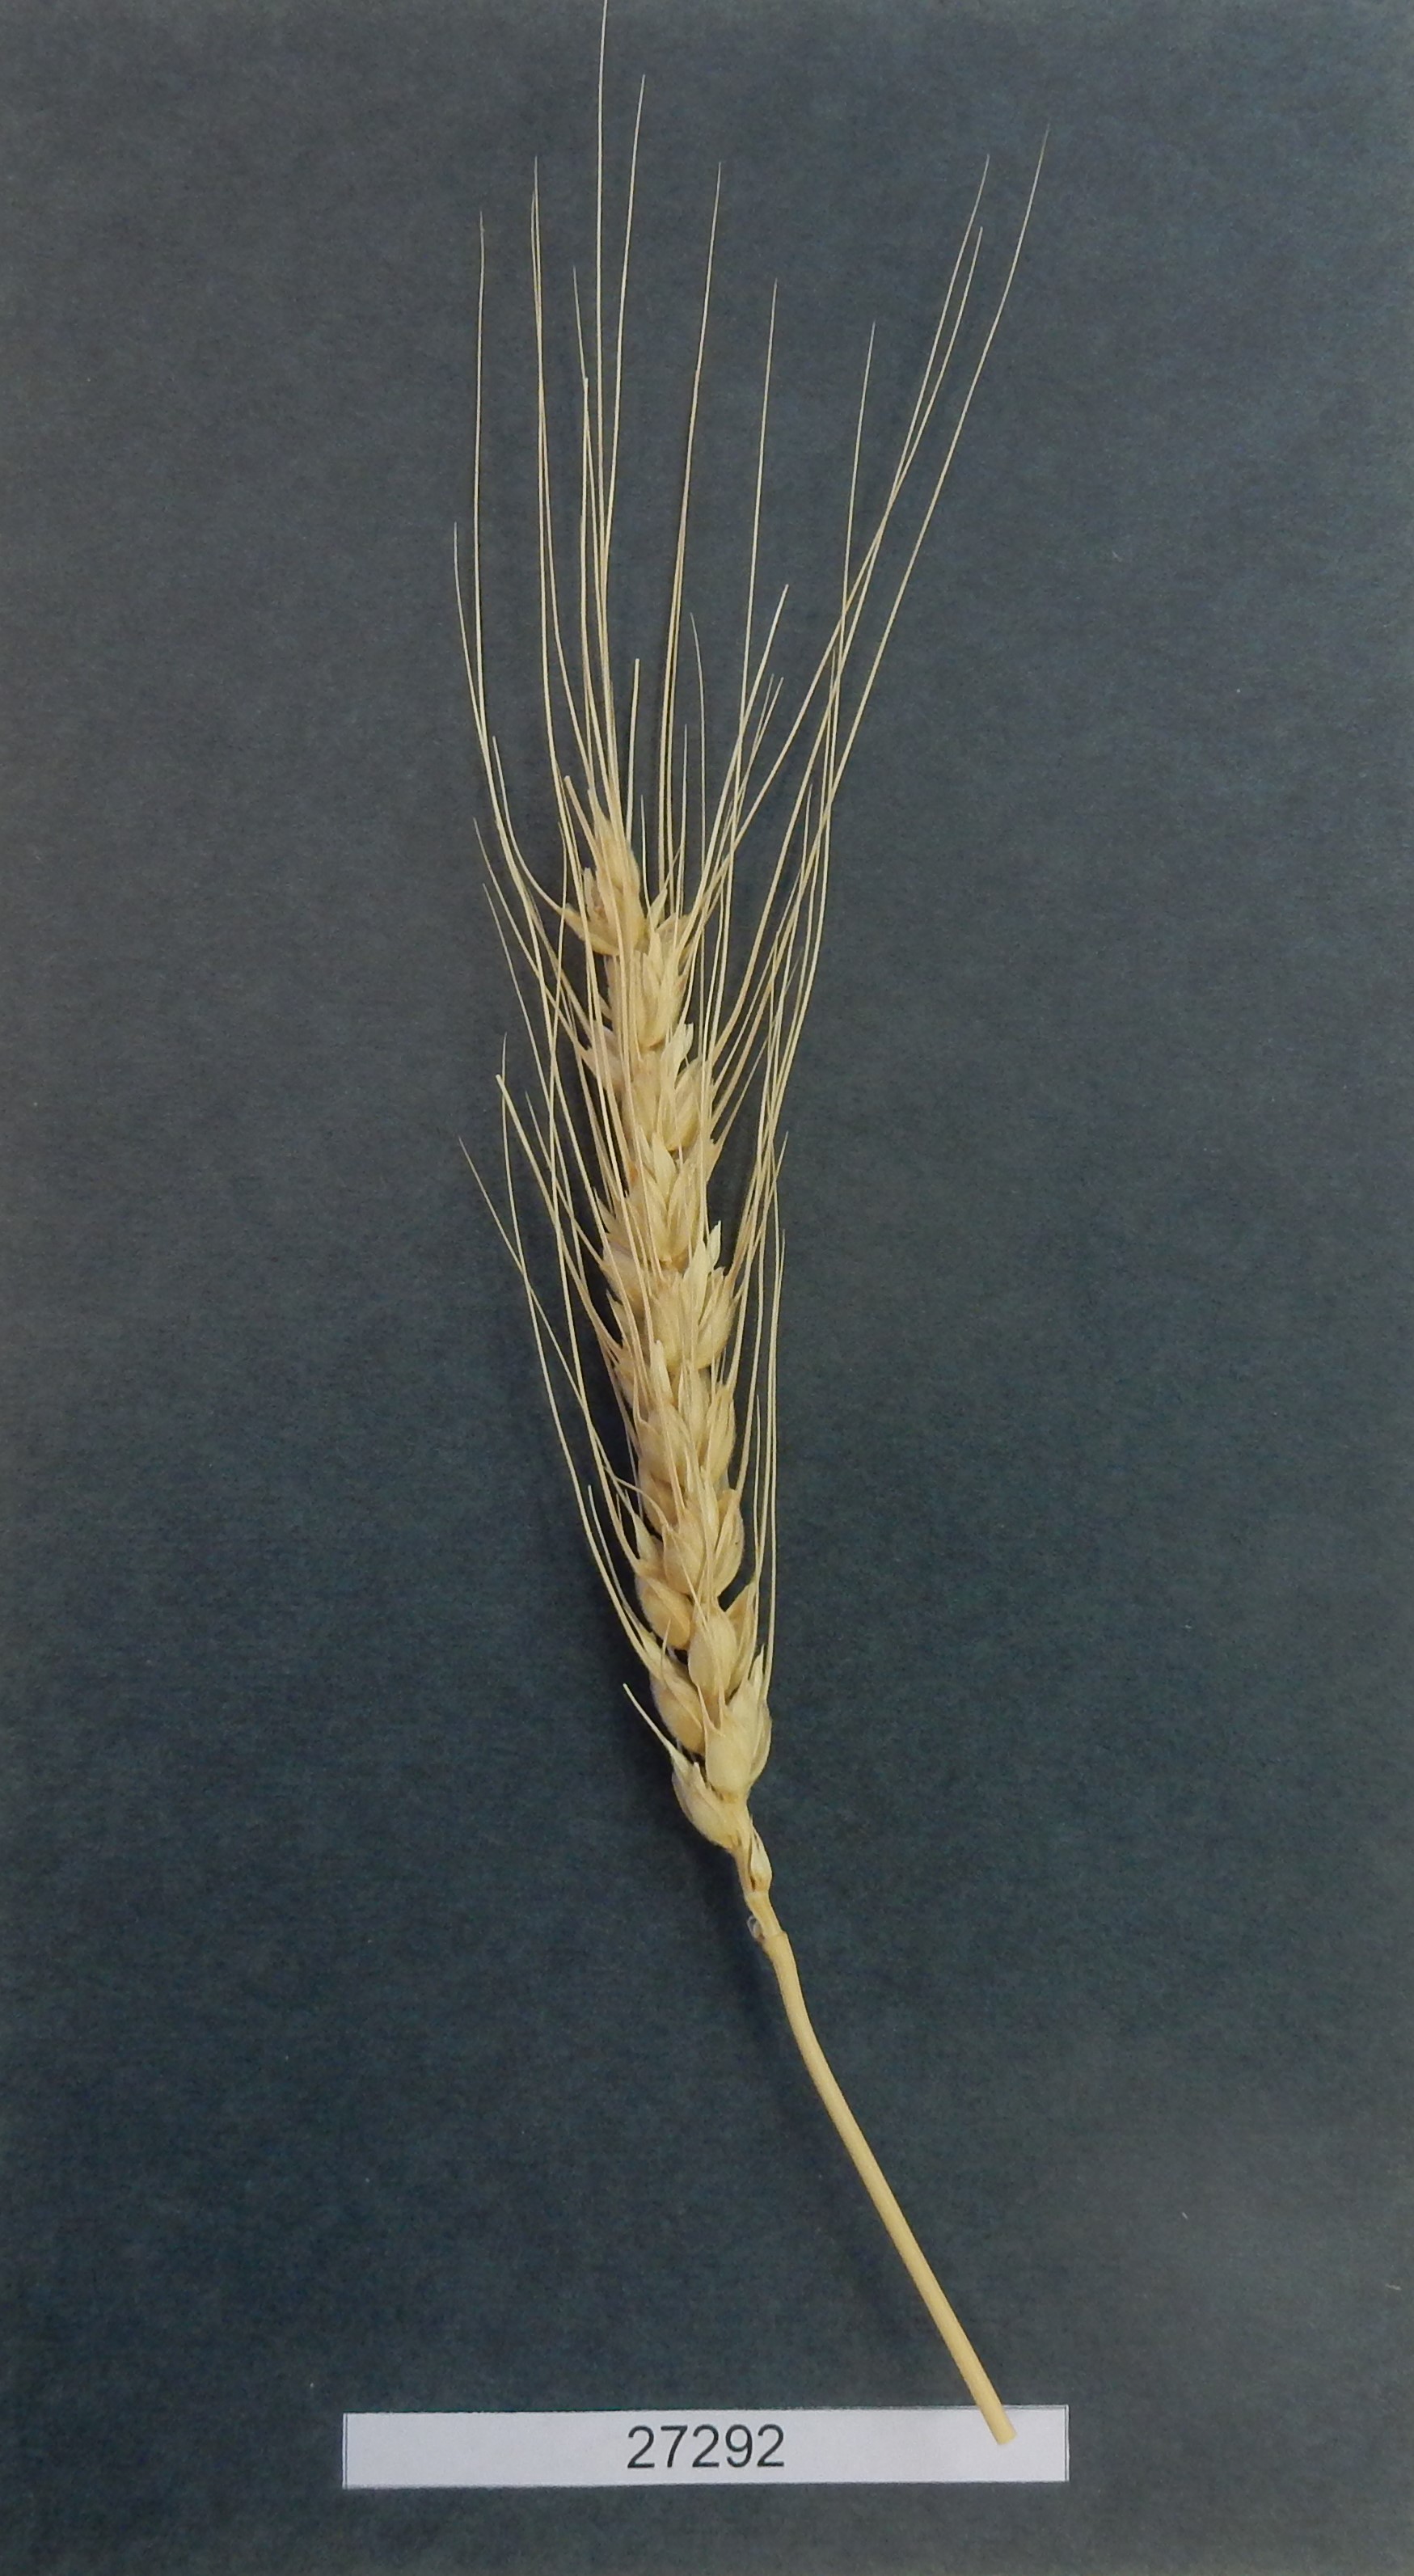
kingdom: Plantae
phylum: Tracheophyta
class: Liliopsida
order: Poales
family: Poaceae
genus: Triticum
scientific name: Triticum aestivum
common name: Common wheat
